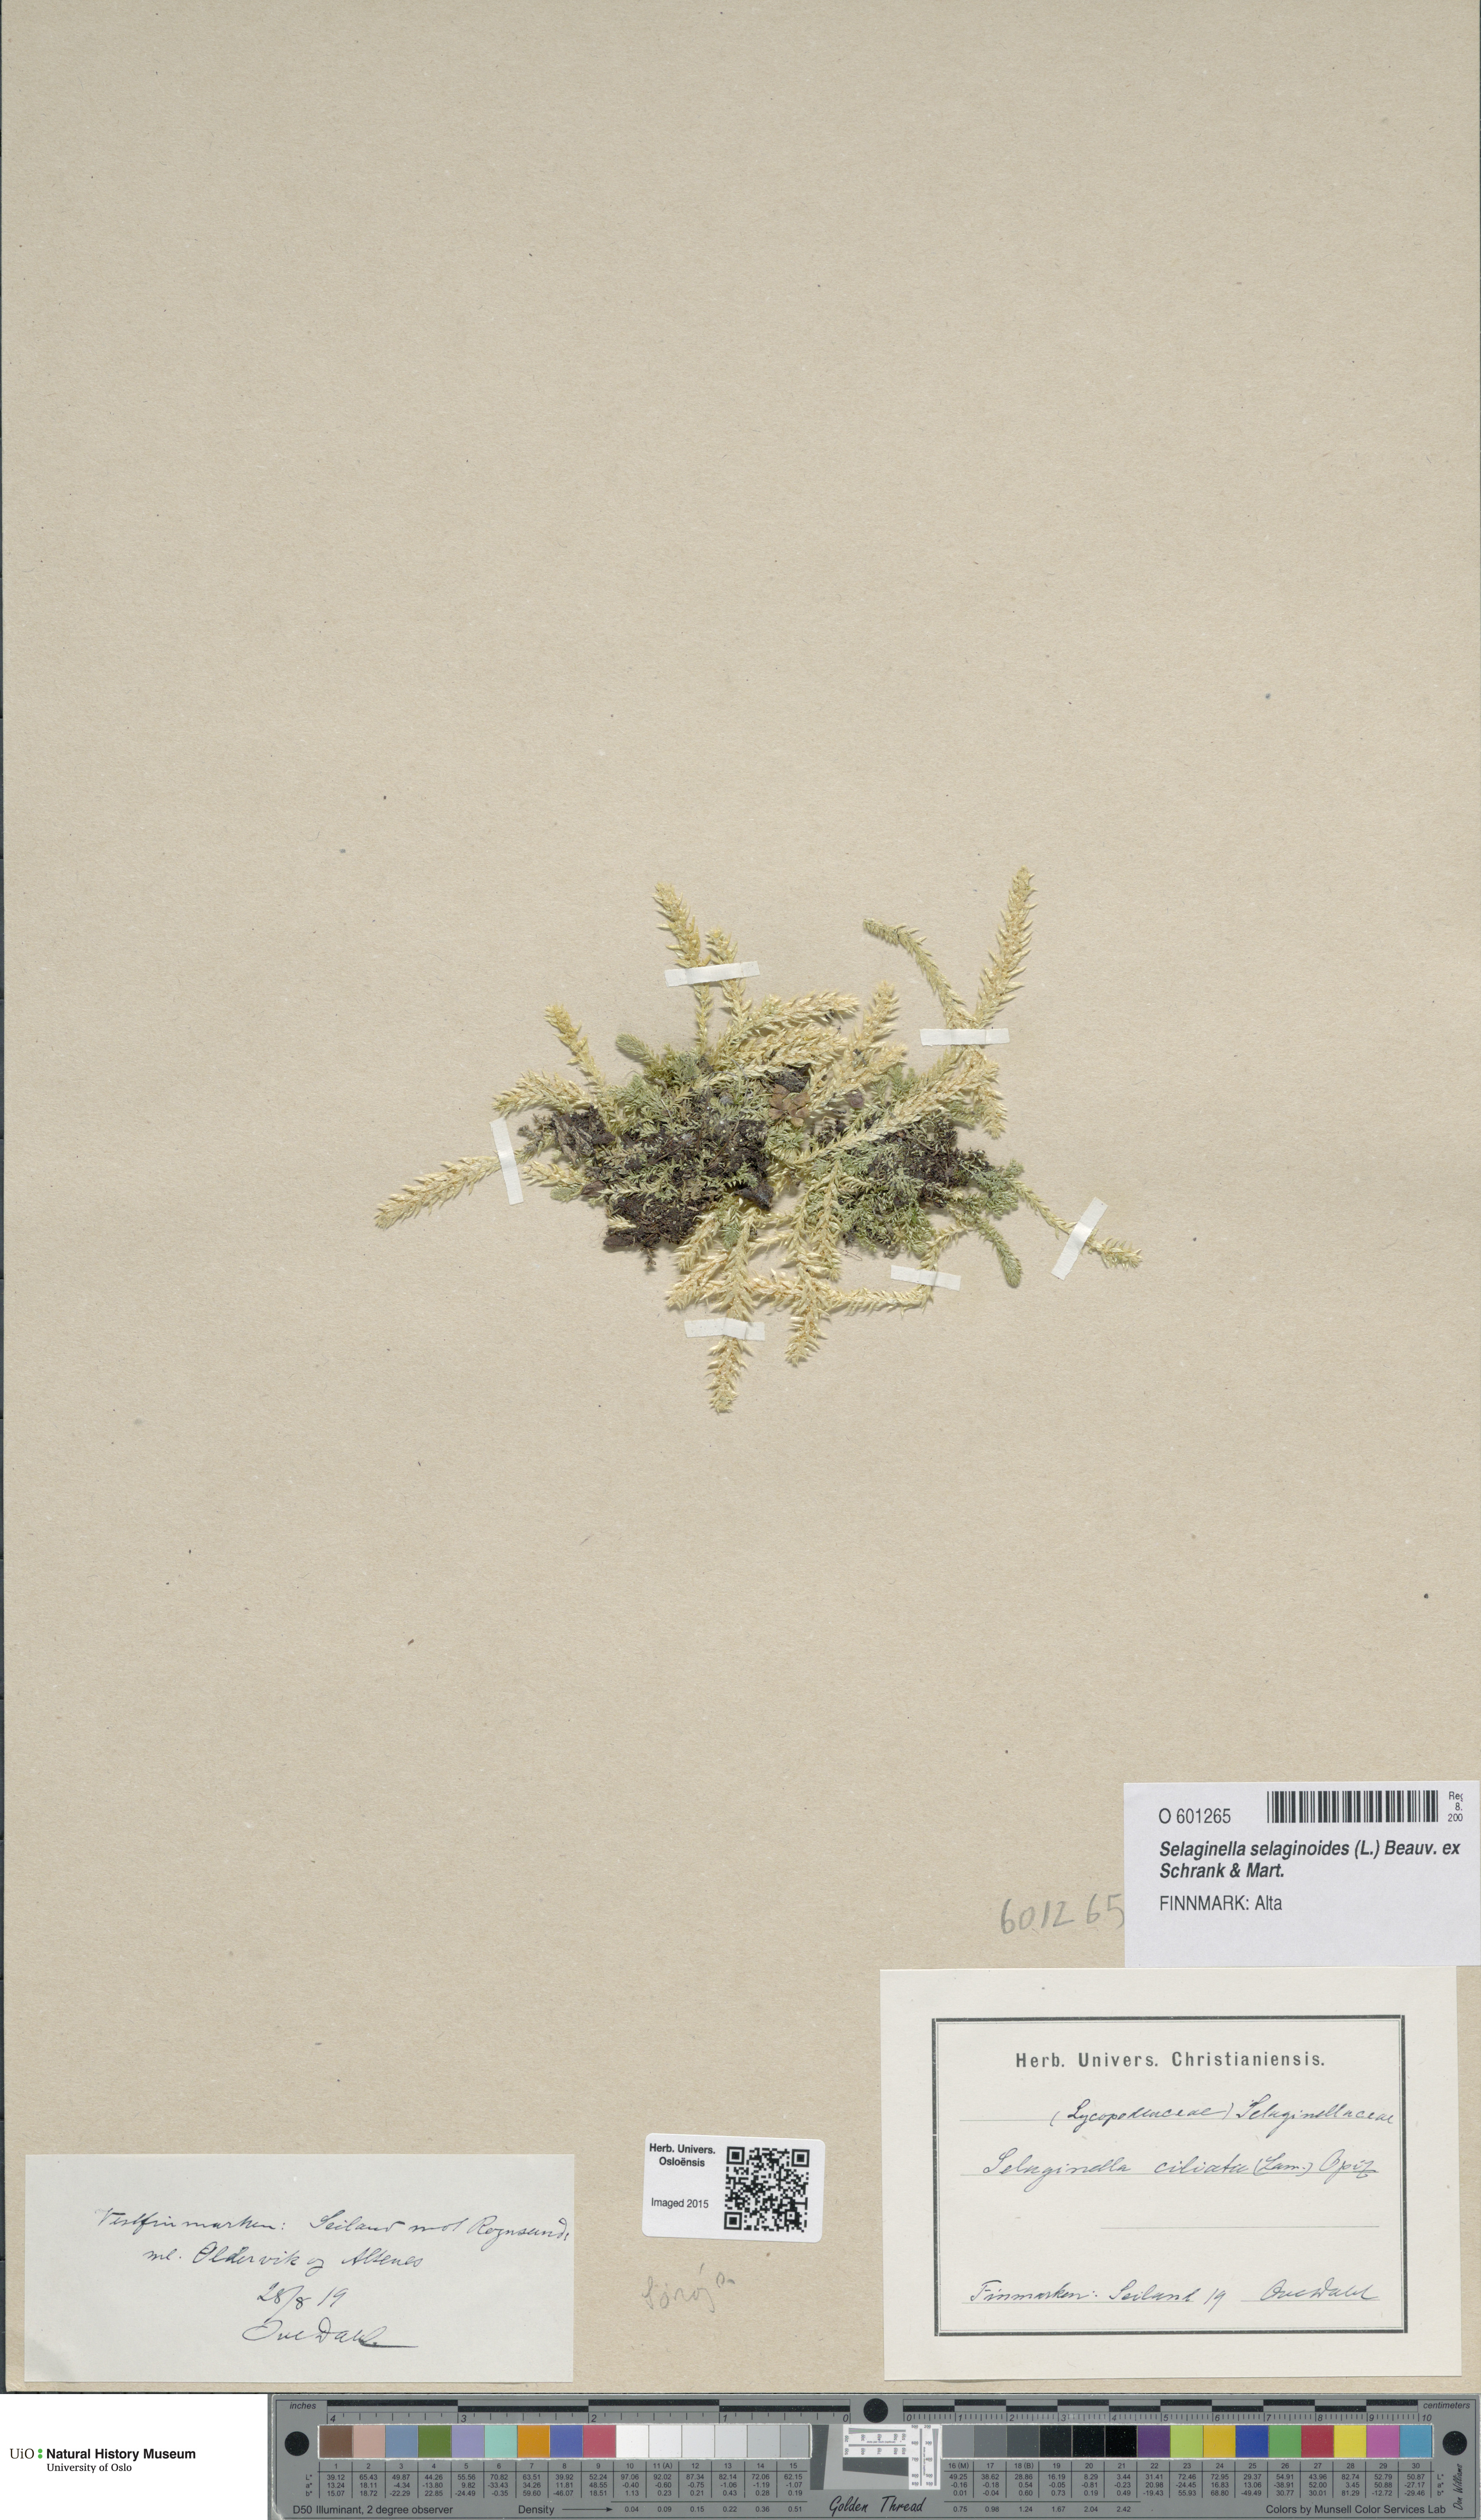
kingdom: Plantae
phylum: Tracheophyta
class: Lycopodiopsida
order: Selaginellales
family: Selaginellaceae
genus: Selaginella
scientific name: Selaginella selaginoides
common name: Prickly mountain-moss
